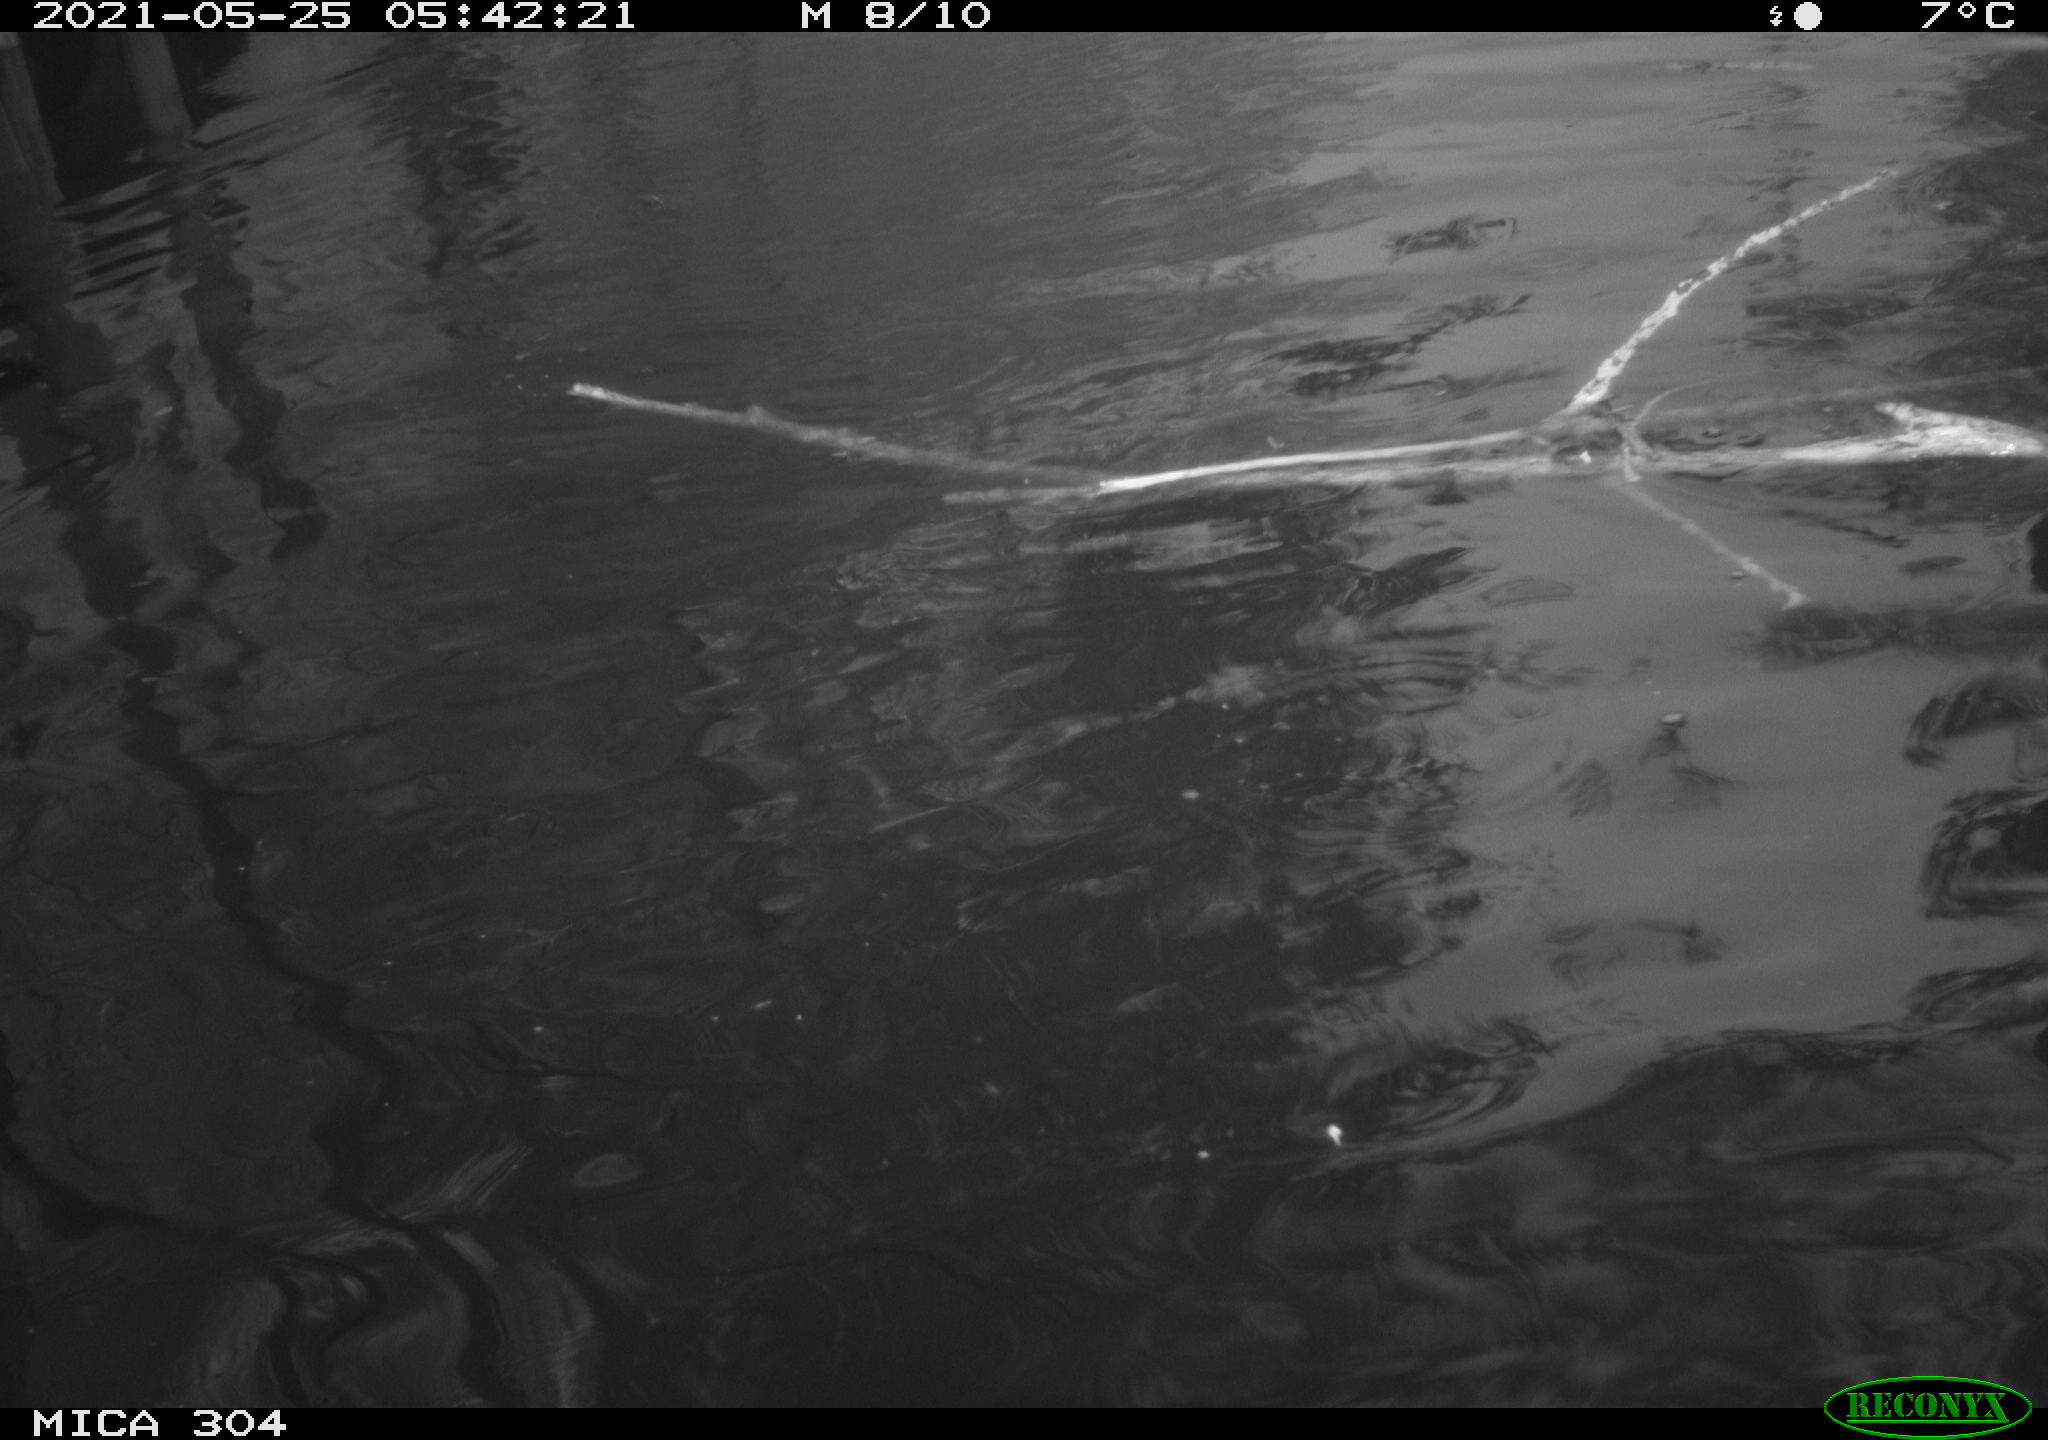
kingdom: Animalia
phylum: Chordata
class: Aves
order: Anseriformes
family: Anatidae
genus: Anas
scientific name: Anas platyrhynchos
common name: Mallard
